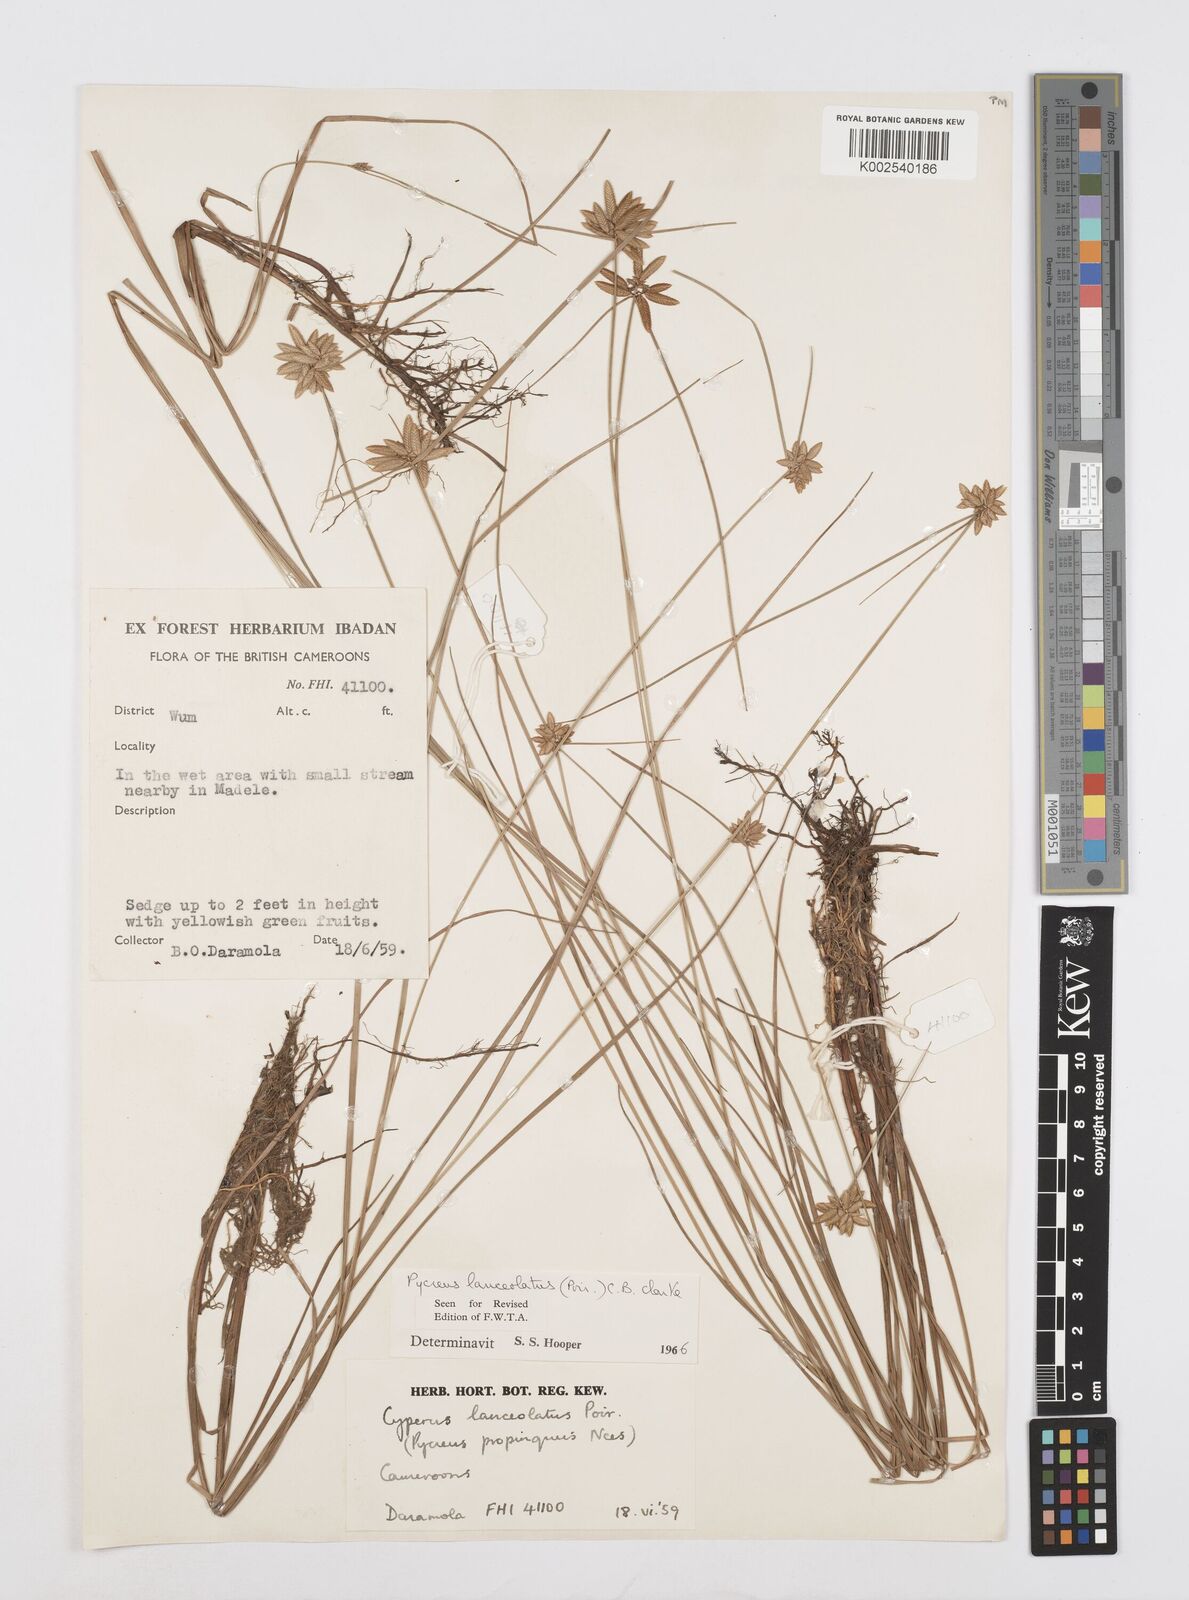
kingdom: Plantae
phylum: Tracheophyta
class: Liliopsida
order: Poales
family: Cyperaceae
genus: Cyperus
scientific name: Cyperus
